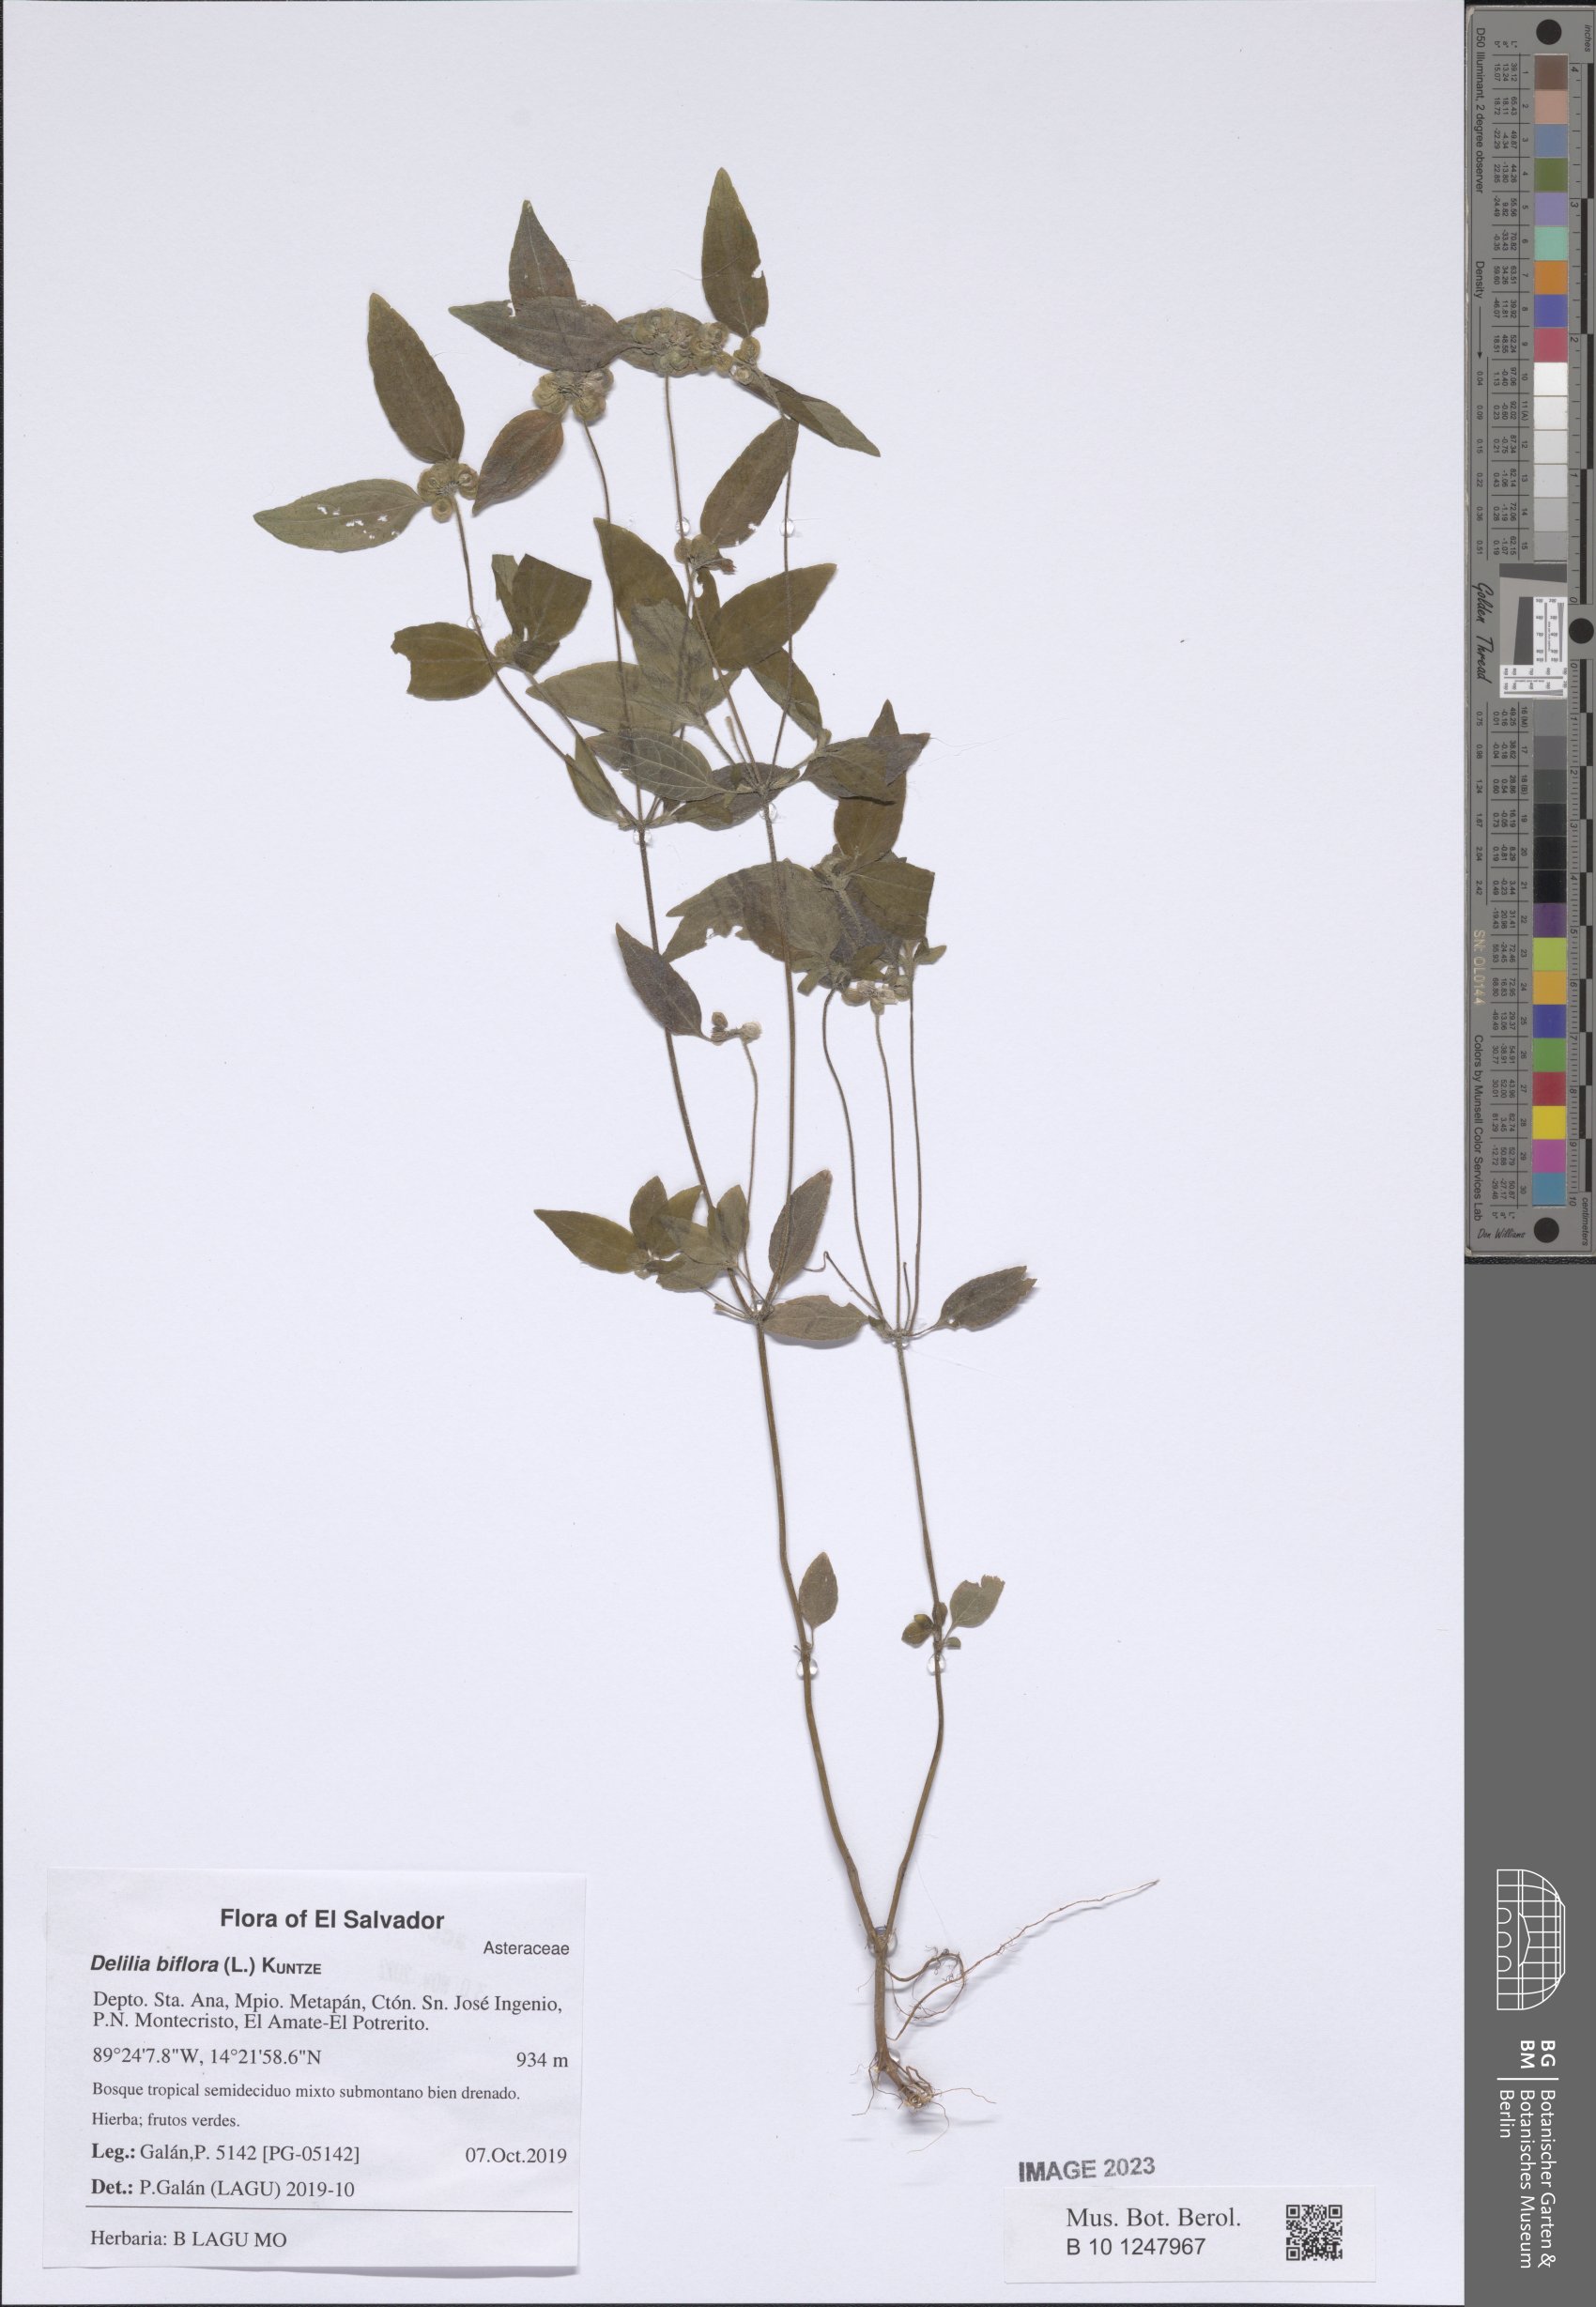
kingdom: Plantae
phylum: Tracheophyta
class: Magnoliopsida
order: Asterales
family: Asteraceae
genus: Delilia
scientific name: Delilia biflora
